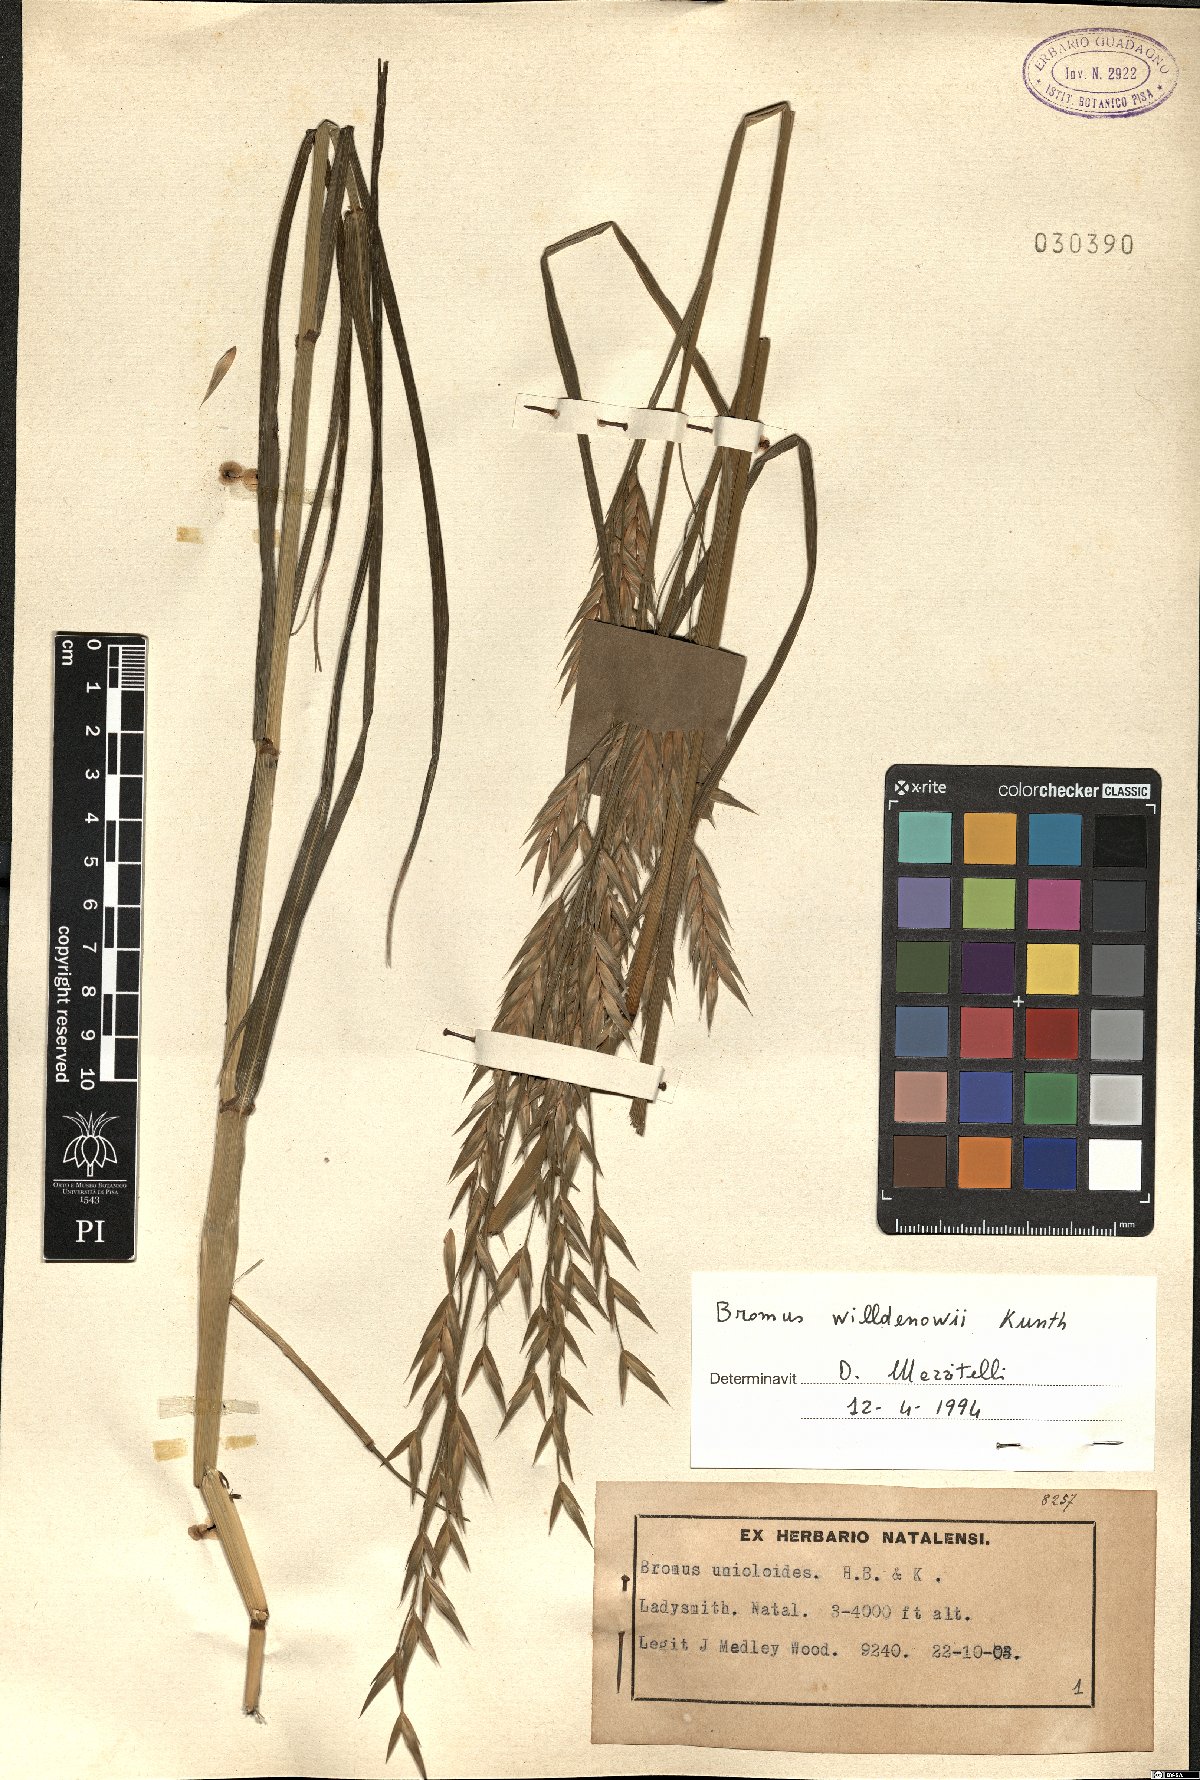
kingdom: Plantae
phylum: Tracheophyta
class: Liliopsida
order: Poales
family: Poaceae
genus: Bromus
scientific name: Bromus catharticus
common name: Rescuegrass
